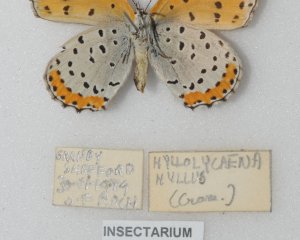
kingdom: Animalia
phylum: Arthropoda
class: Insecta
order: Lepidoptera
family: Sesiidae
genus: Sesia
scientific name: Sesia Lycaena hyllus
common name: Bronze Copper
